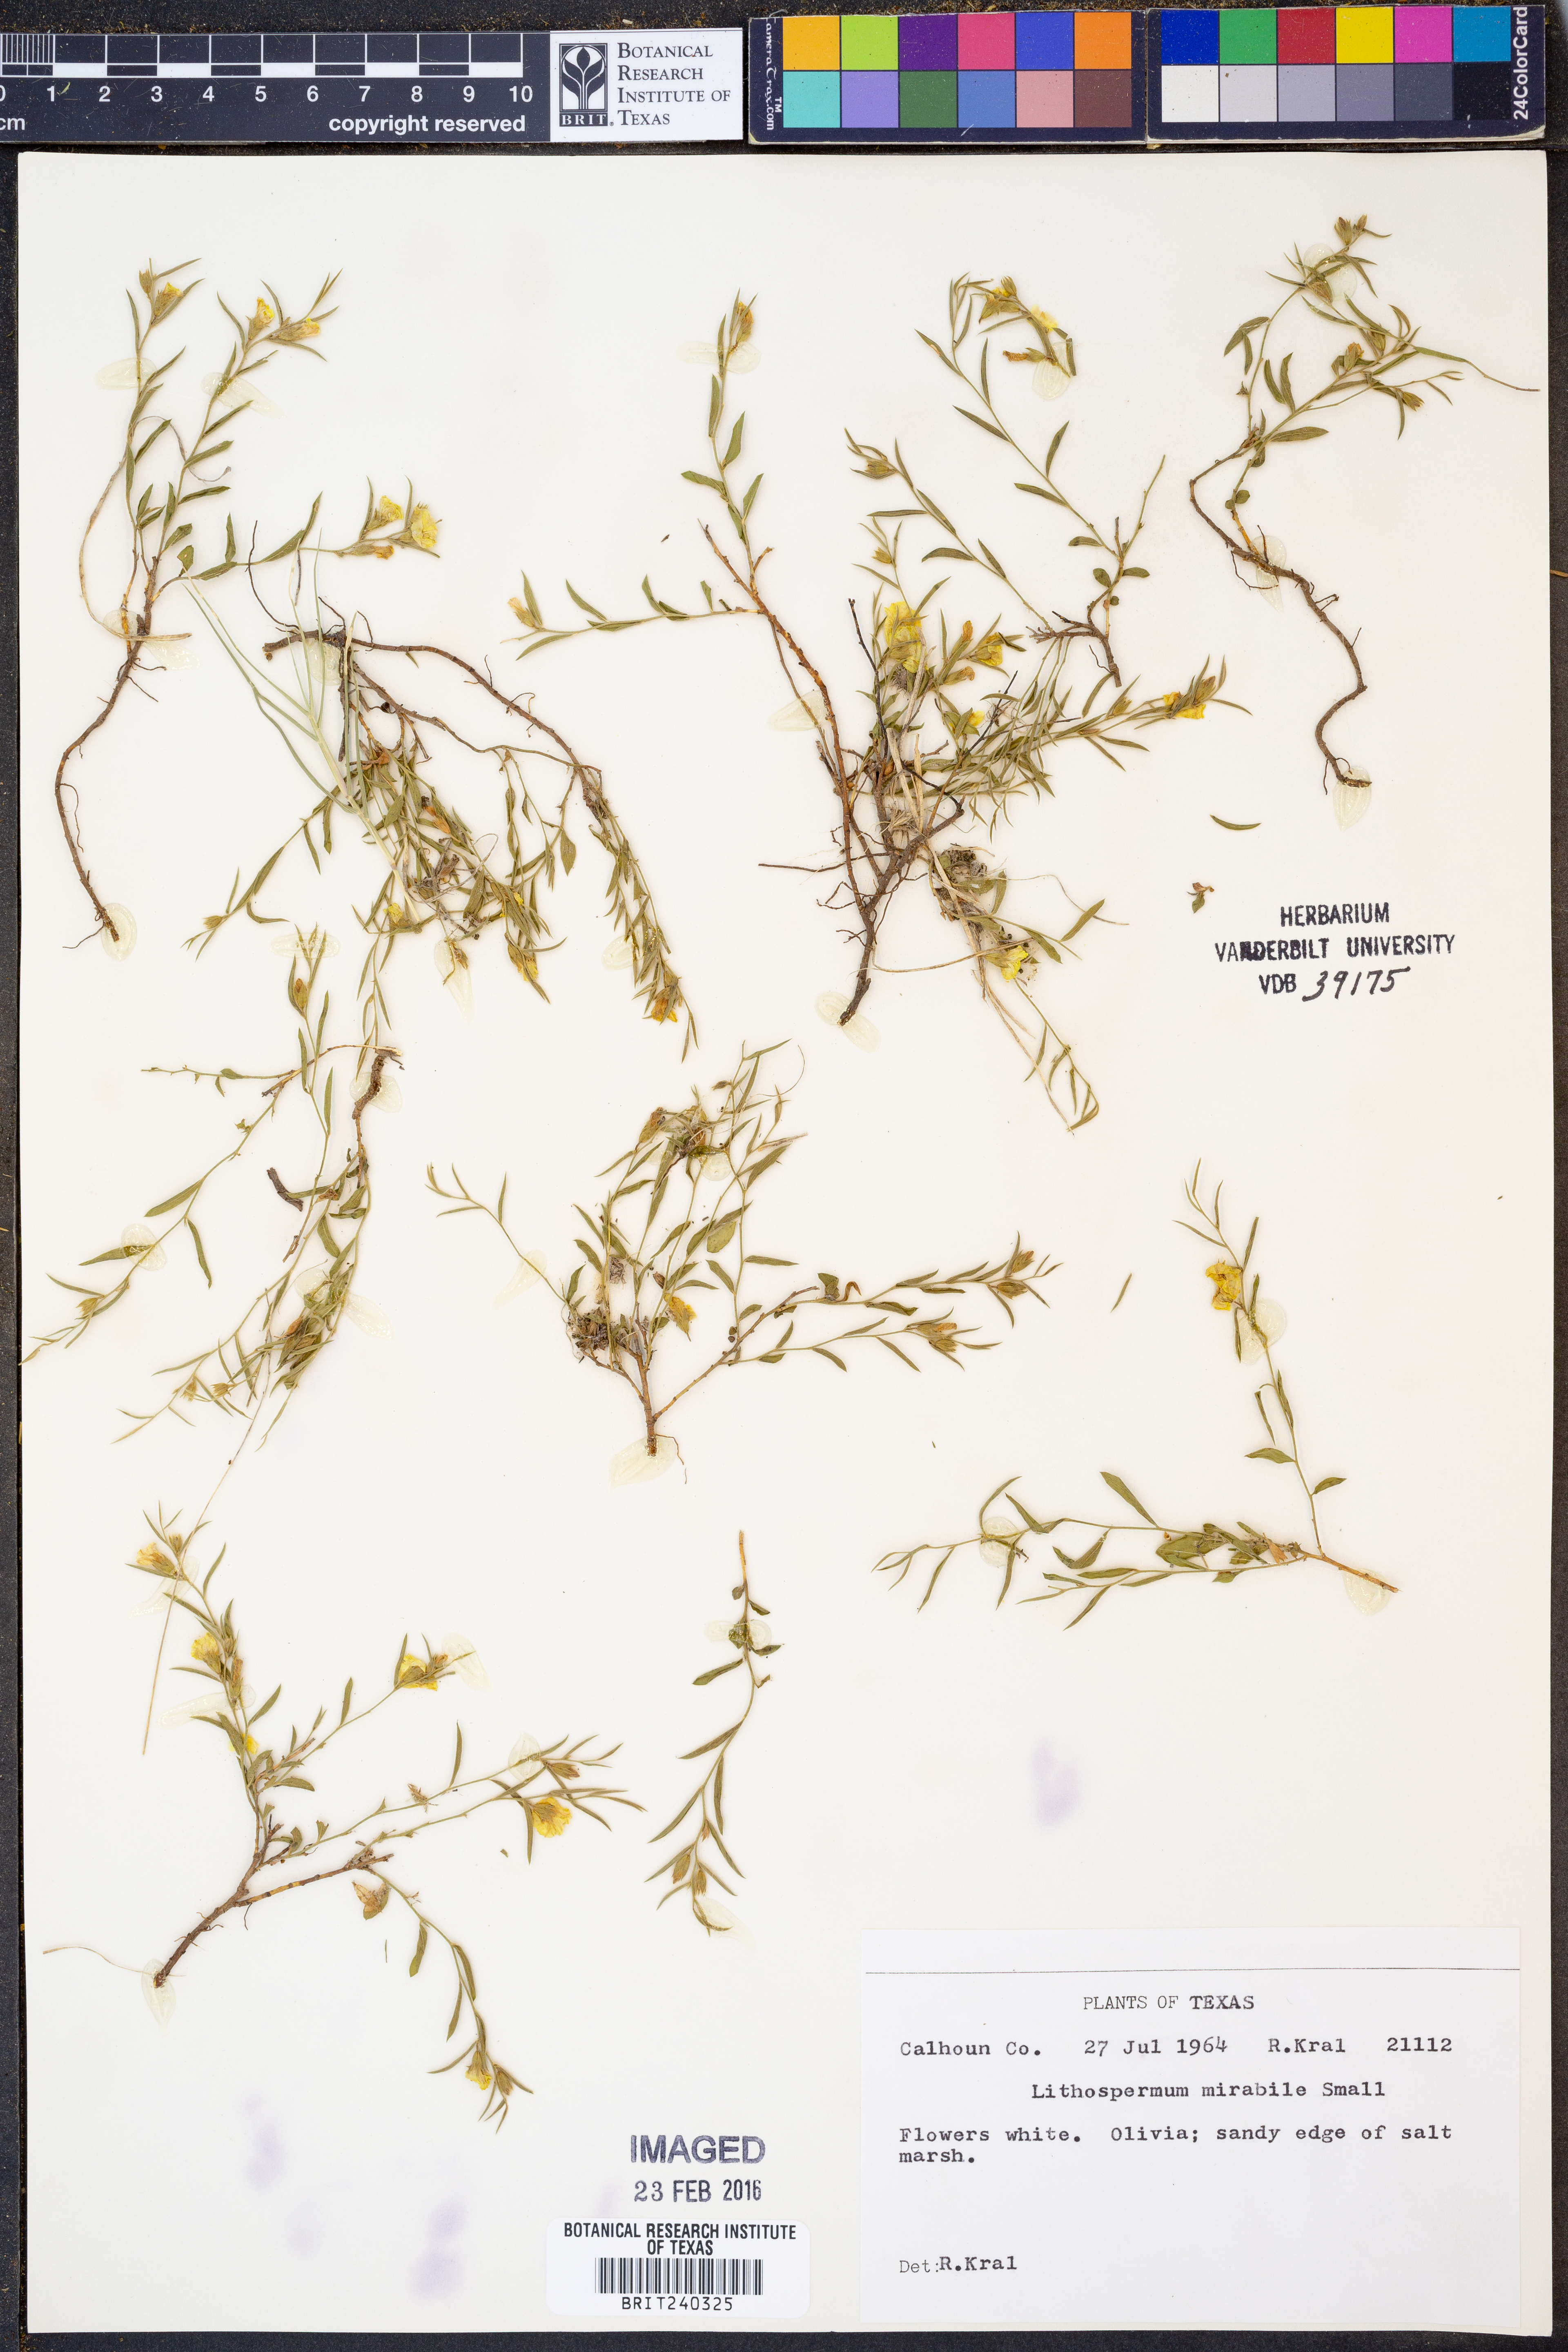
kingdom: Plantae
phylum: Tracheophyta
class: Magnoliopsida
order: Boraginales
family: Boraginaceae
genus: Lithospermum
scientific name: Lithospermum mirabile
